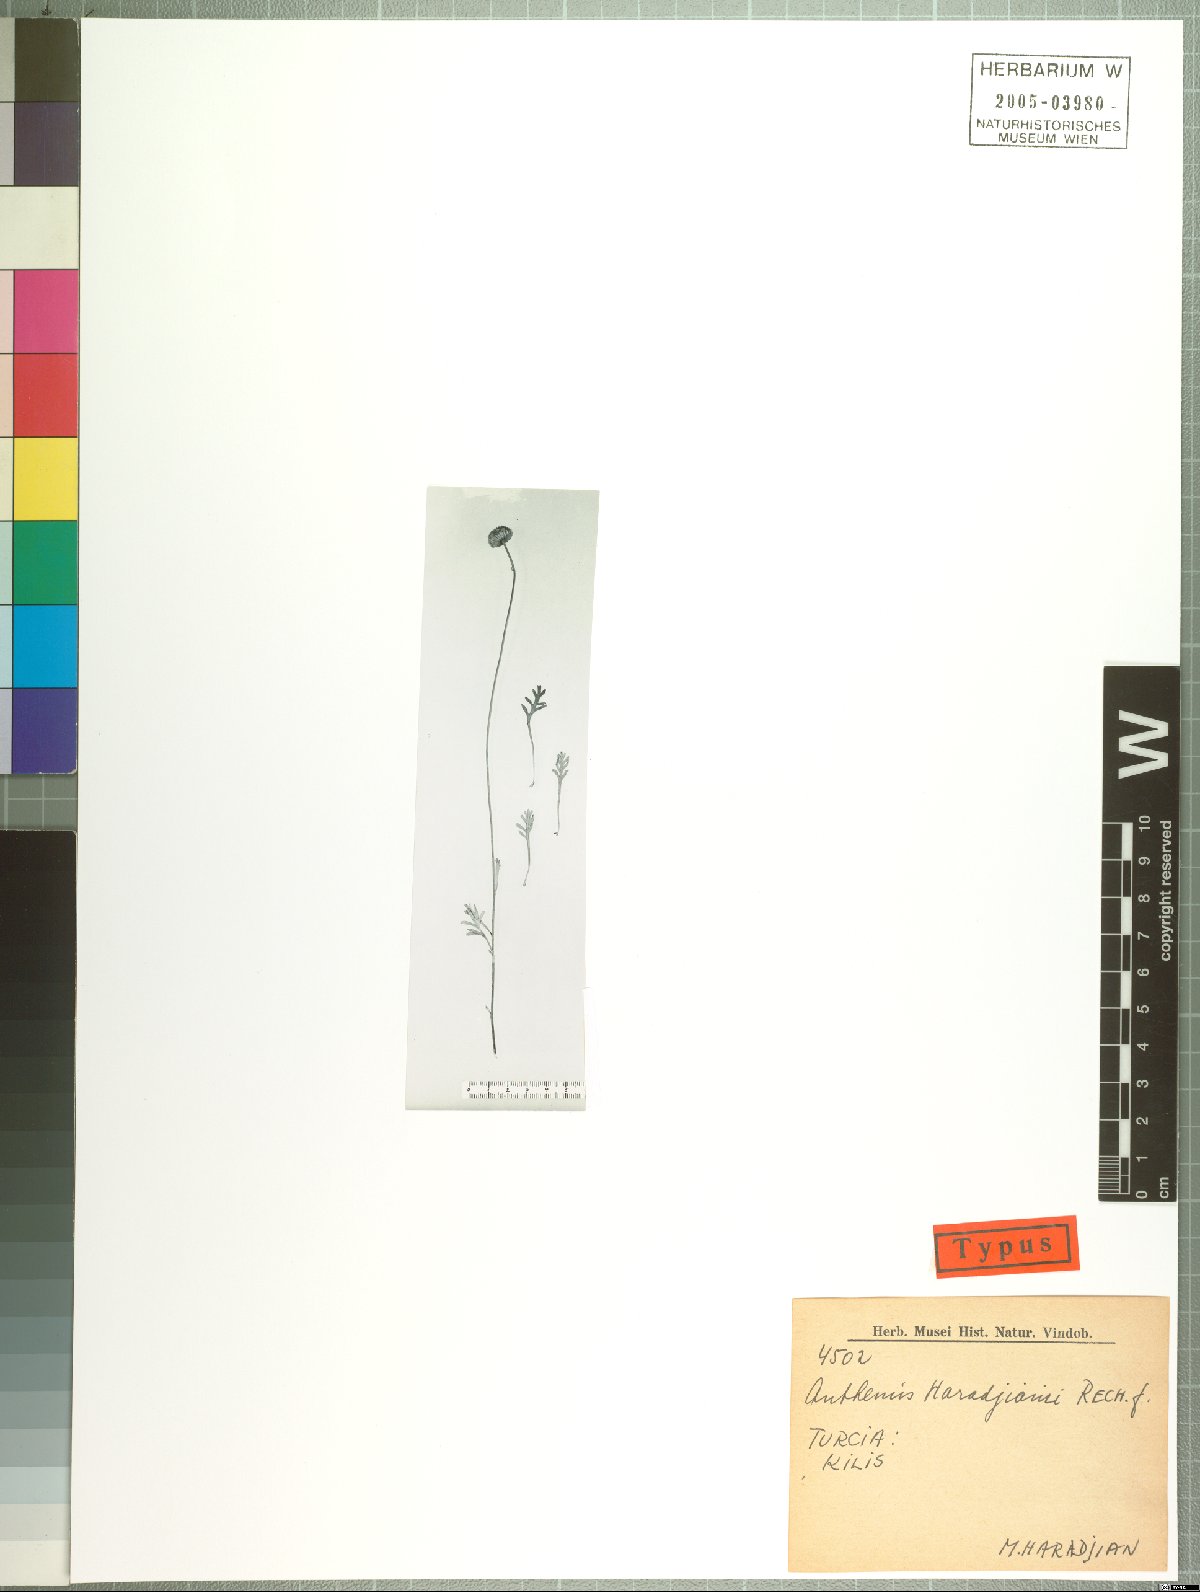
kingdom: Plantae
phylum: Tracheophyta
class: Magnoliopsida
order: Asterales
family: Asteraceae
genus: Anthemis
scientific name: Anthemis pauciloba
